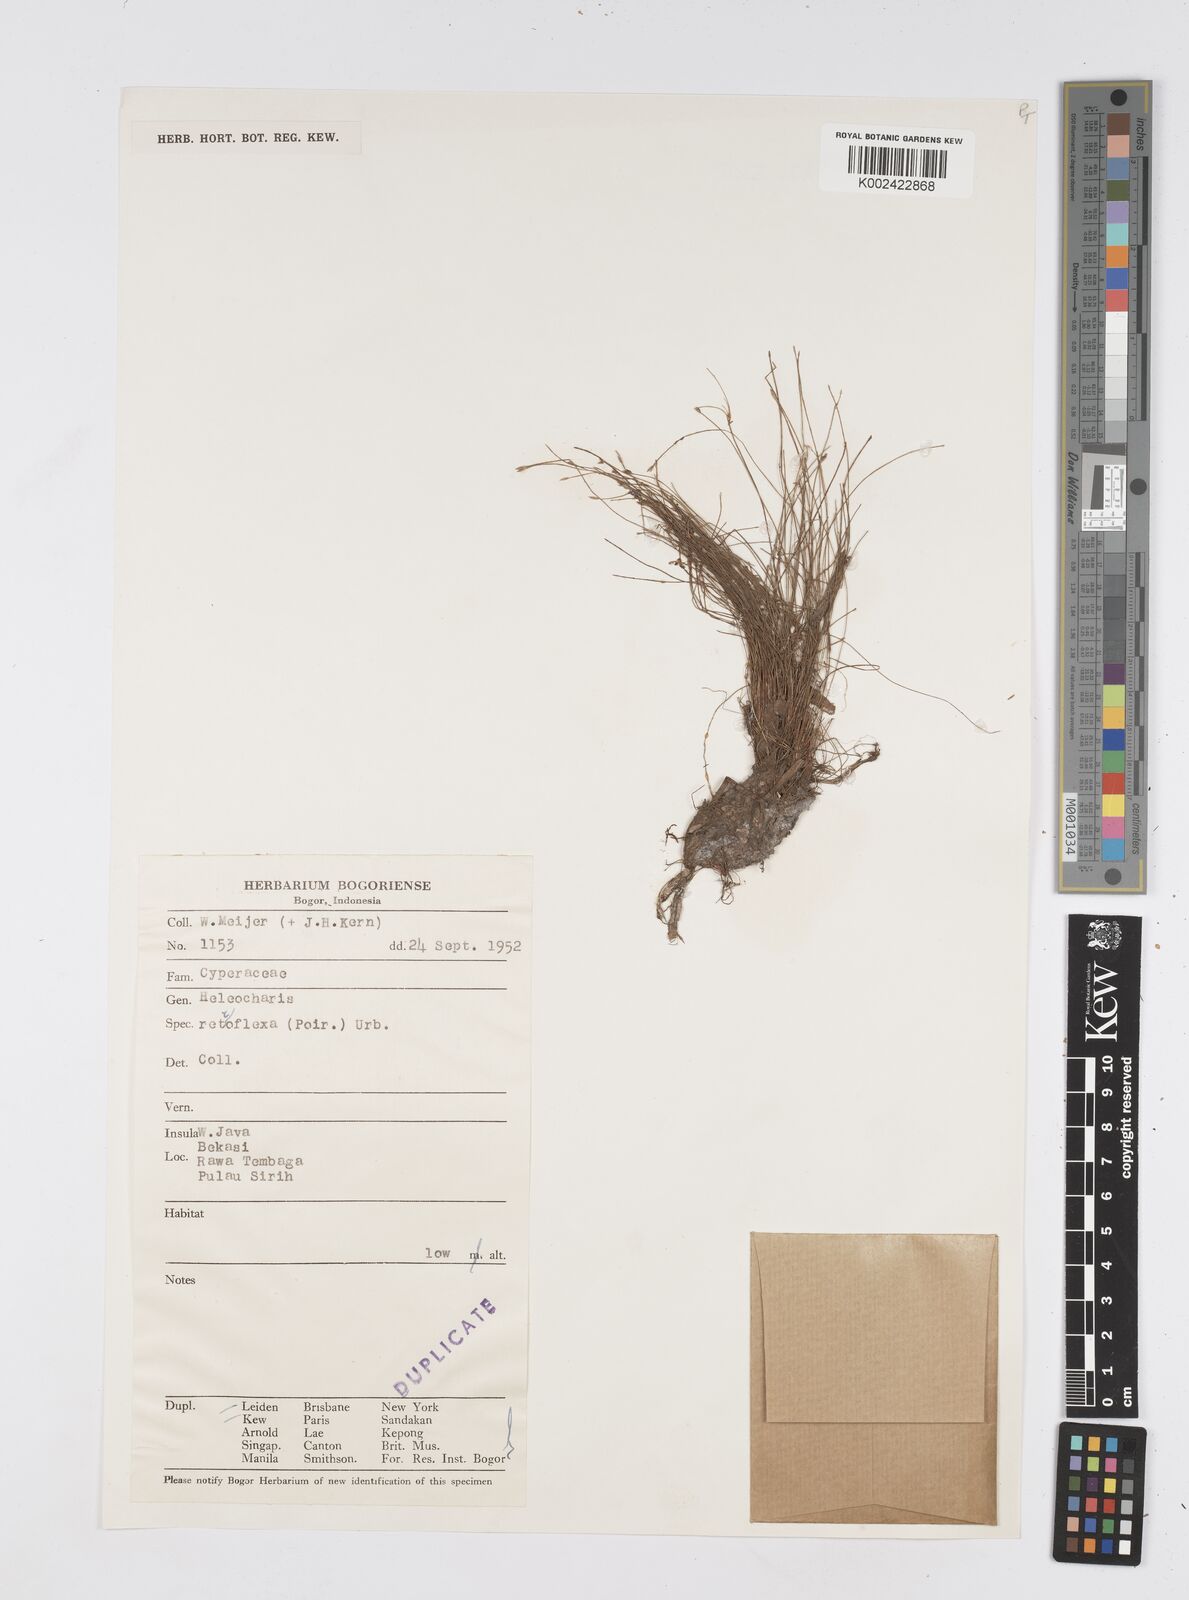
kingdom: Plantae
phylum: Tracheophyta
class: Liliopsida
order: Poales
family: Cyperaceae
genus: Eleocharis
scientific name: Eleocharis retroflexa
